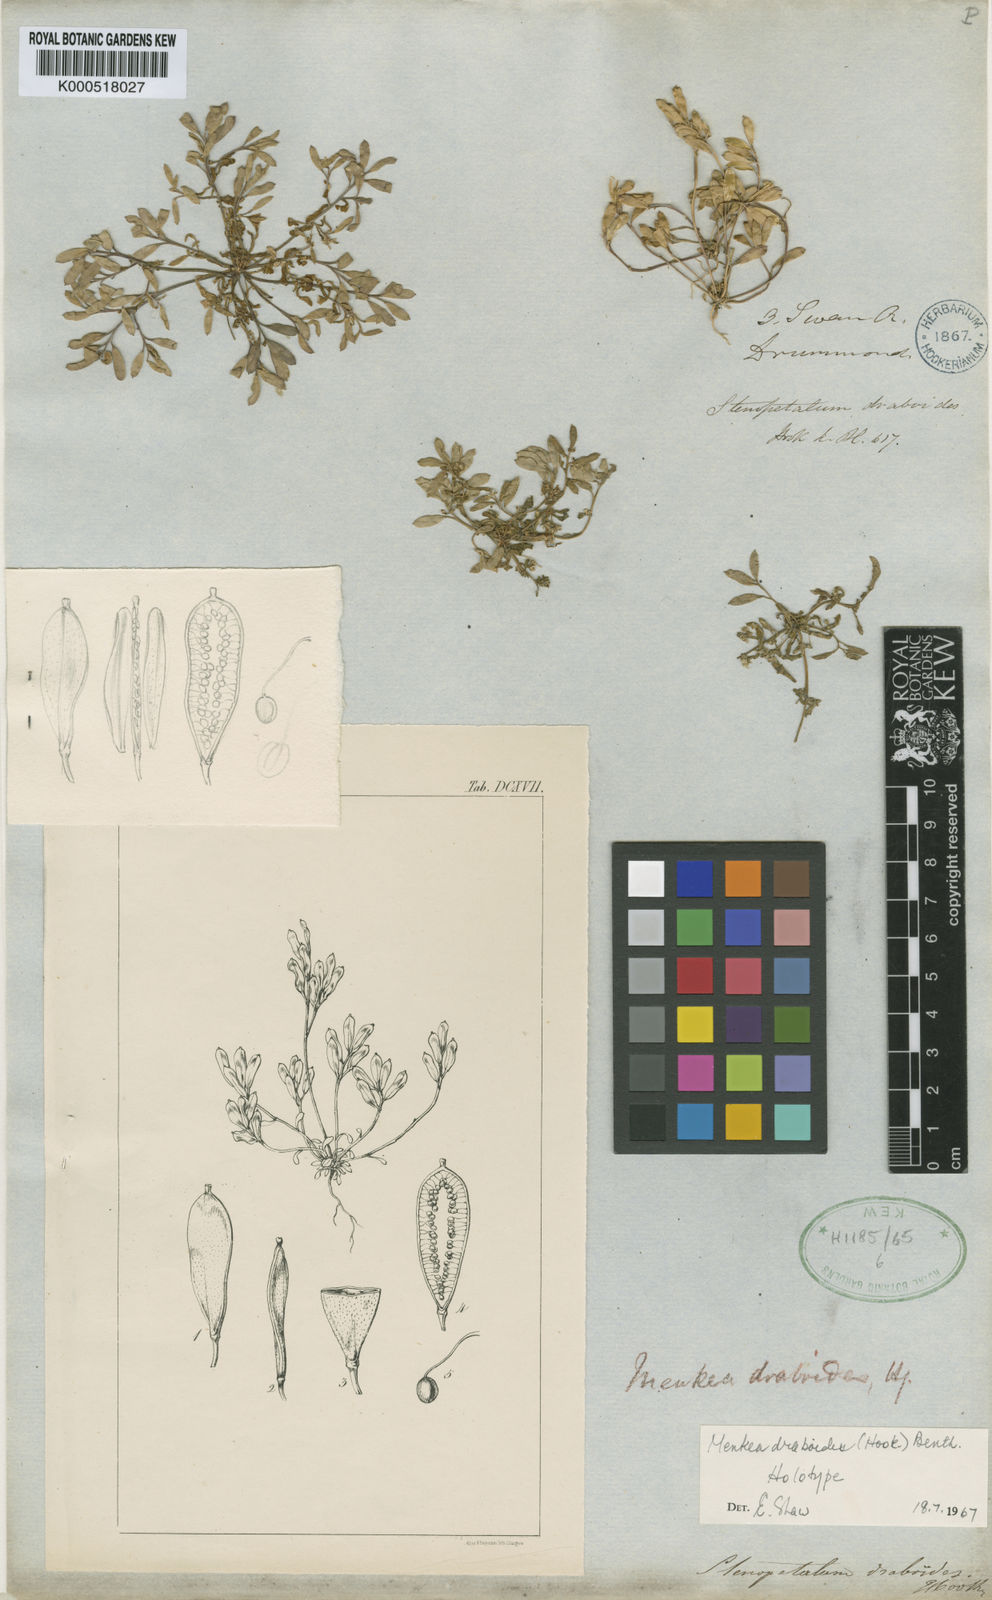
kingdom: Plantae
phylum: Tracheophyta
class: Magnoliopsida
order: Brassicales
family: Brassicaceae
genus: Menkea
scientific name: Menkea draboides
